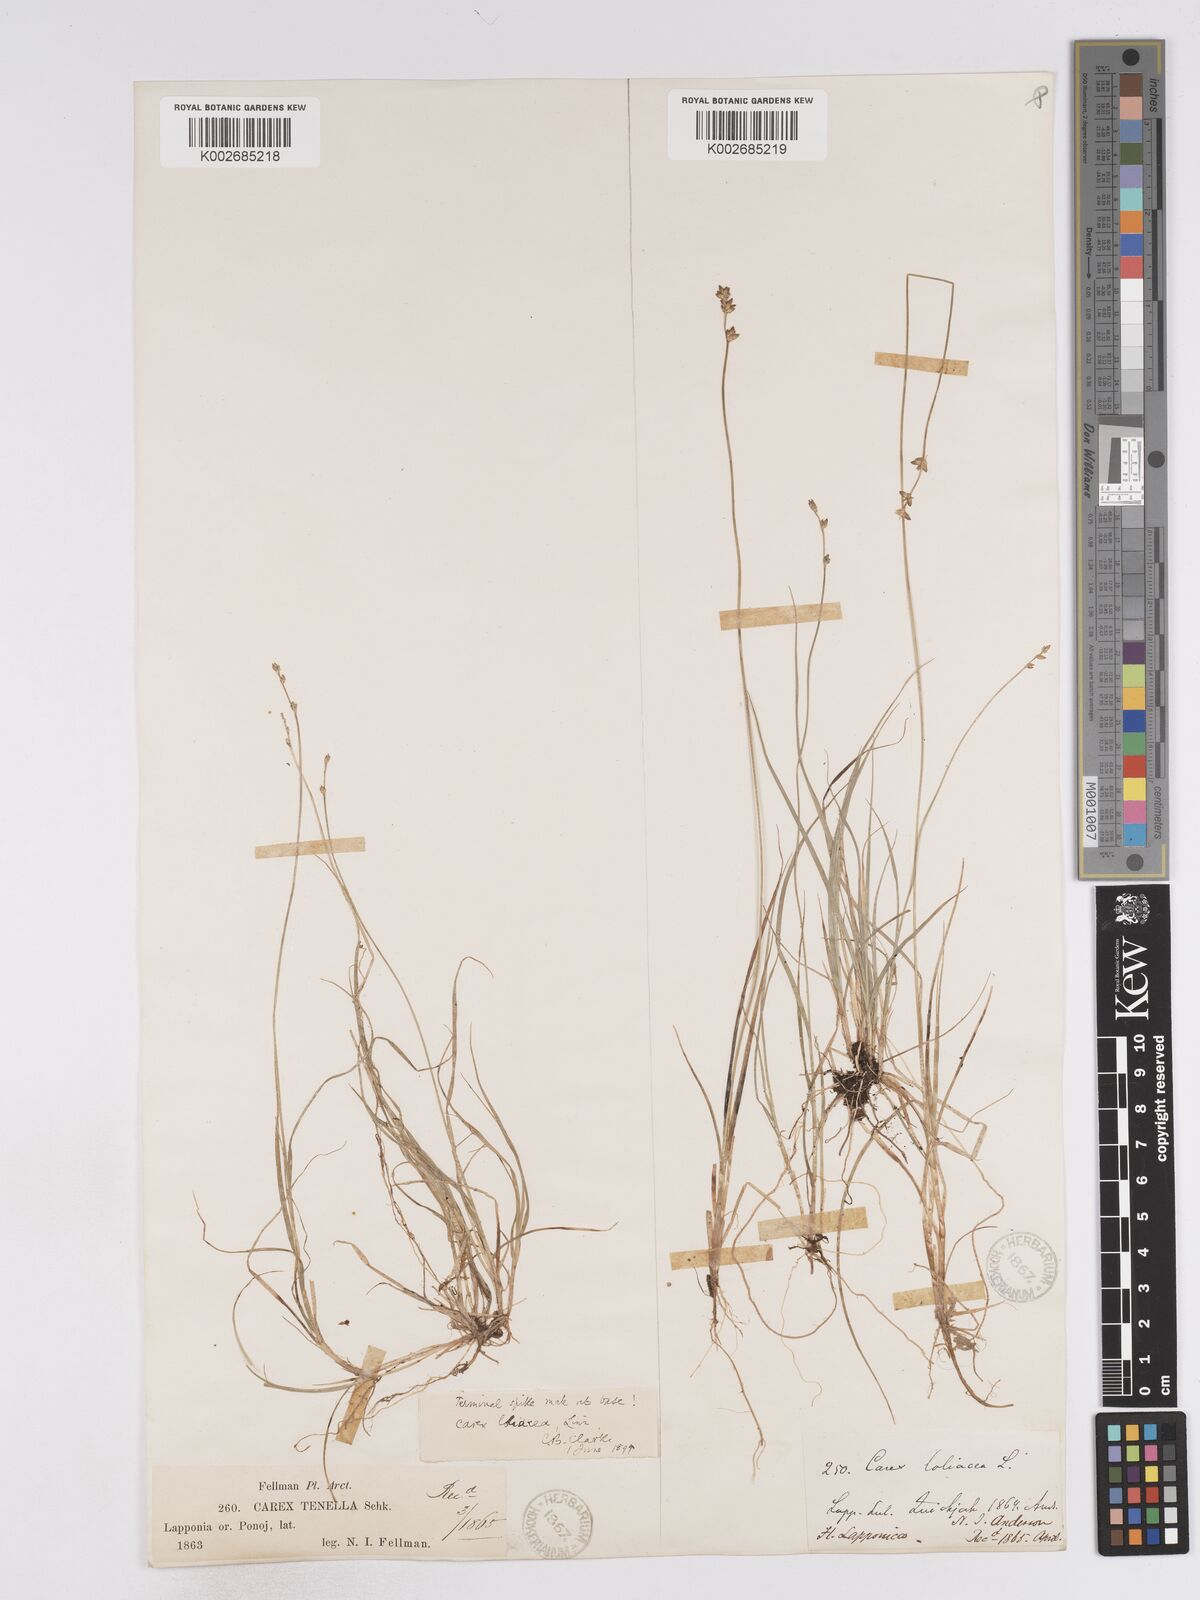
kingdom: Plantae
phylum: Tracheophyta
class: Liliopsida
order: Poales
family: Cyperaceae
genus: Carex
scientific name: Carex loliacea
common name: Ryegrass sedge
